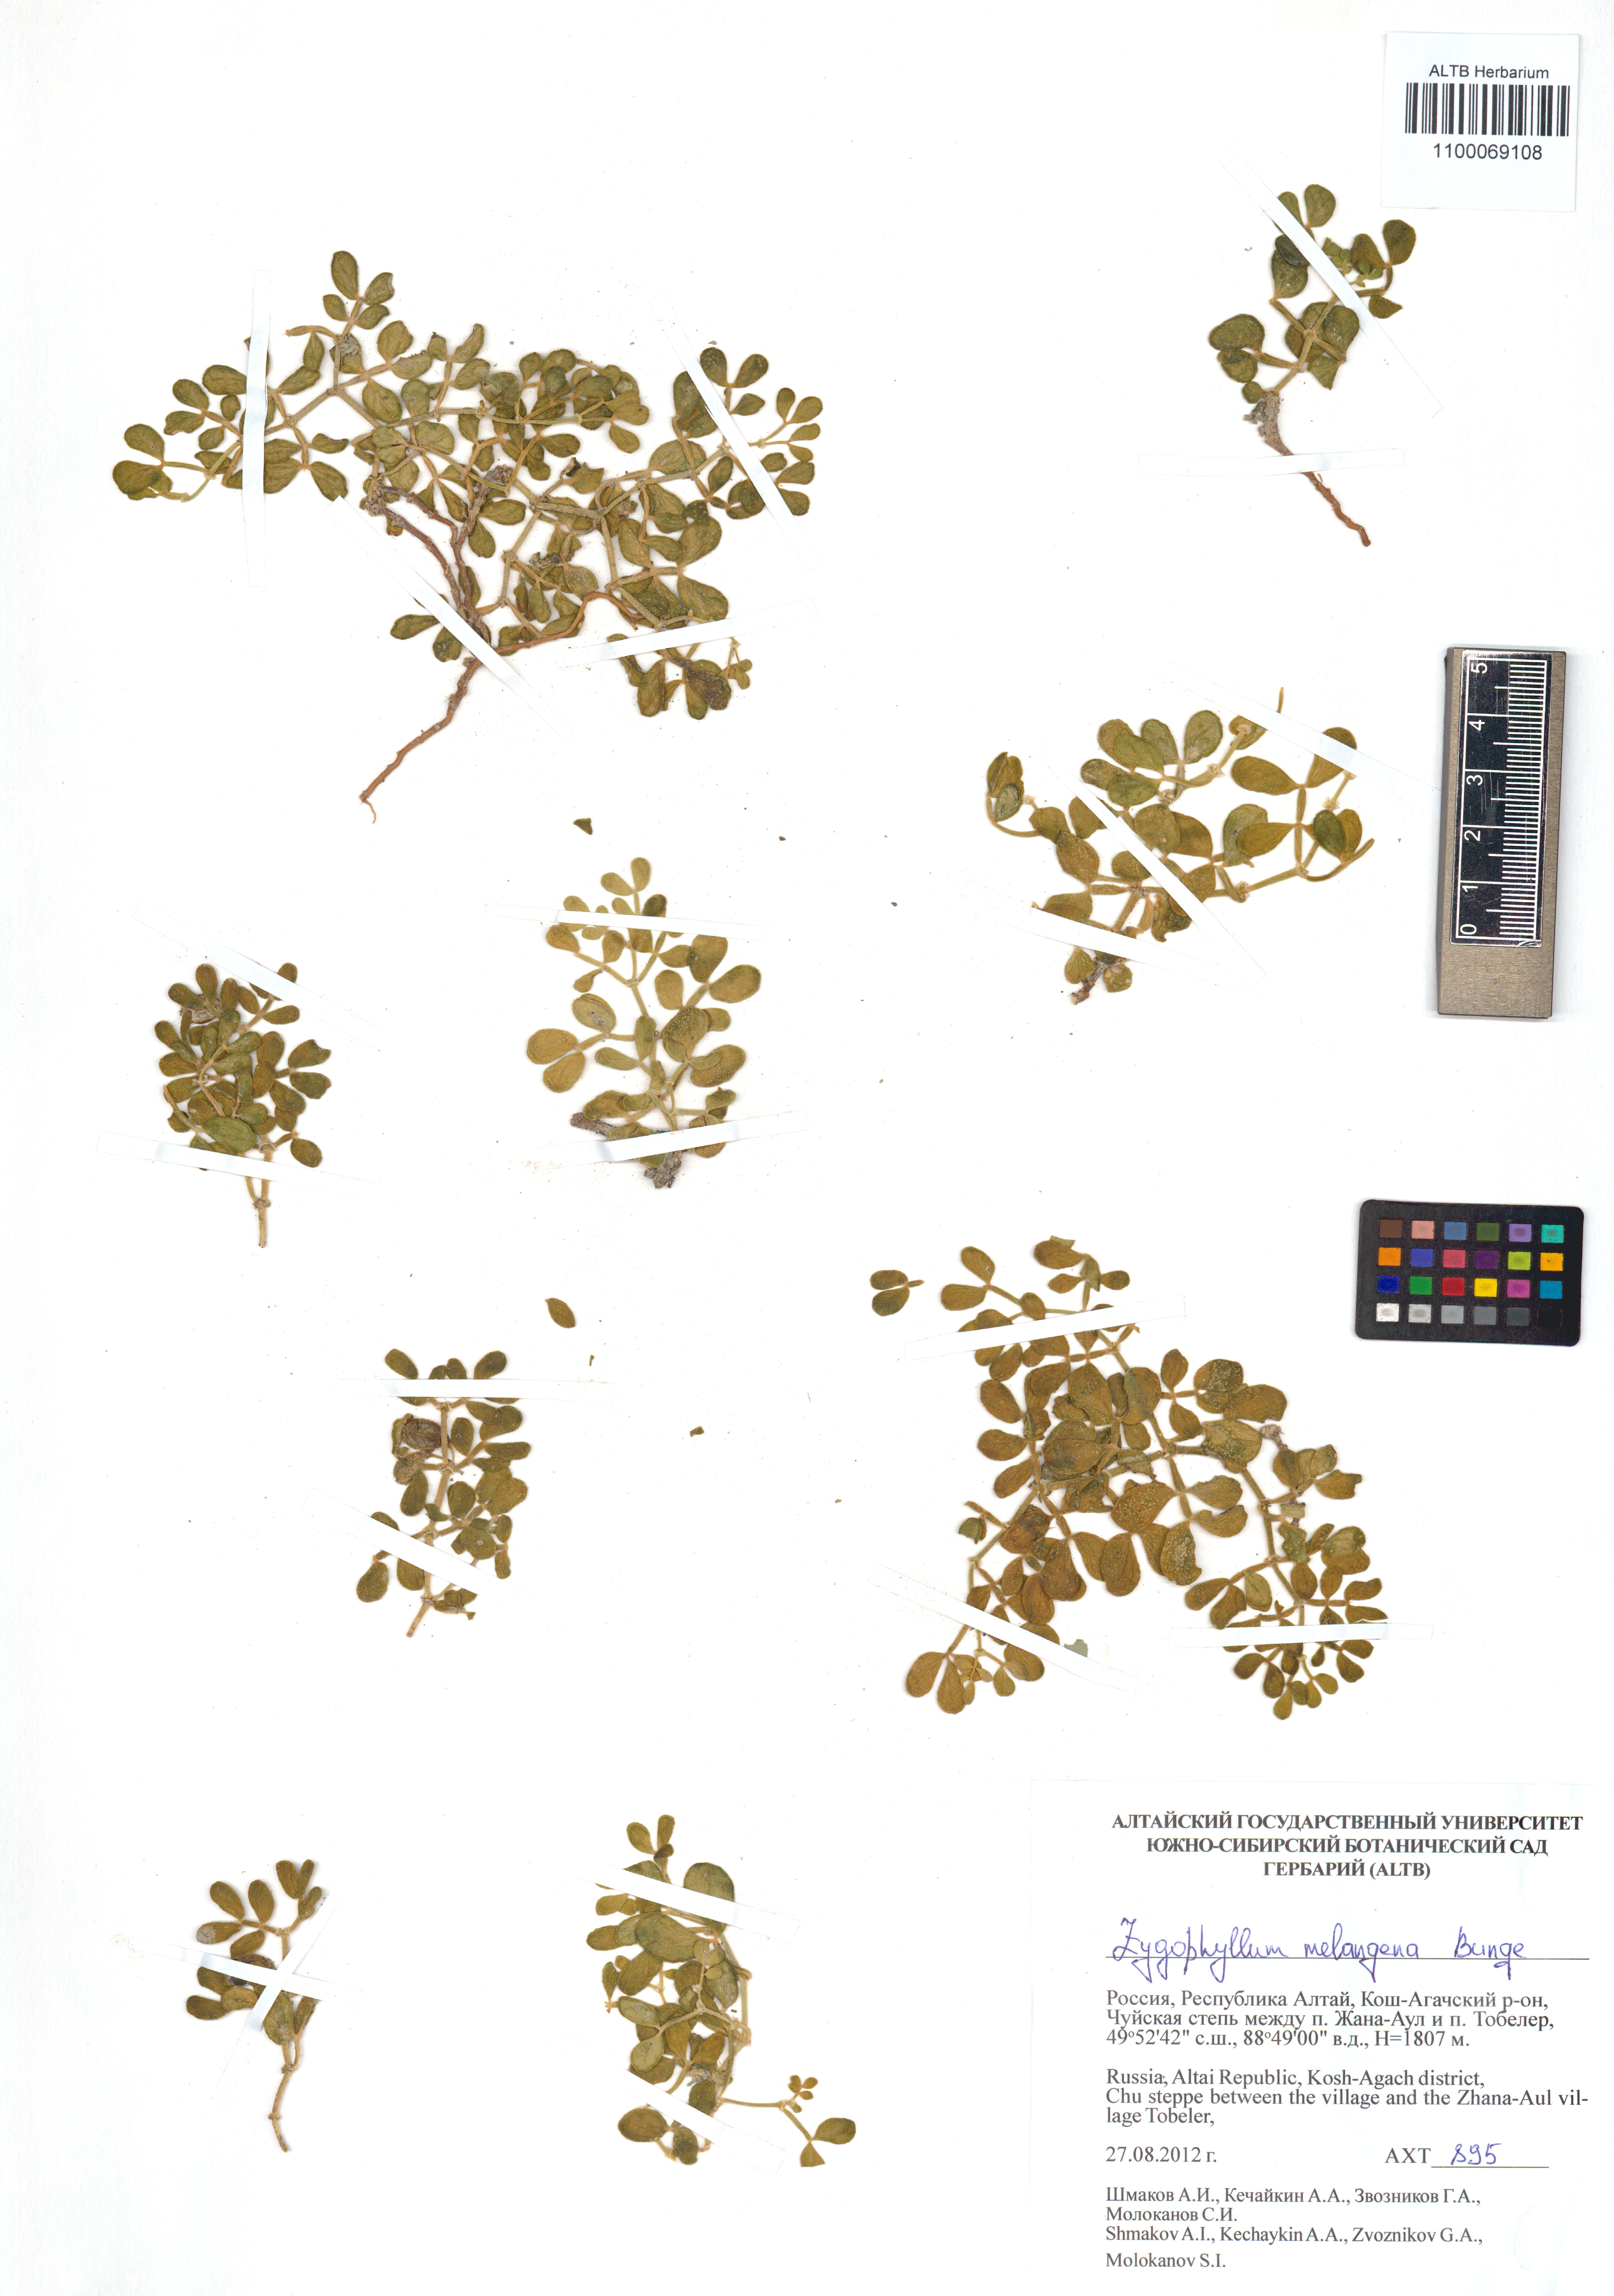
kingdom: Plantae
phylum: Tracheophyta
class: Magnoliopsida
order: Zygophyllales
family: Zygophyllaceae
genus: Zygophyllum
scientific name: Zygophyllum melongena
